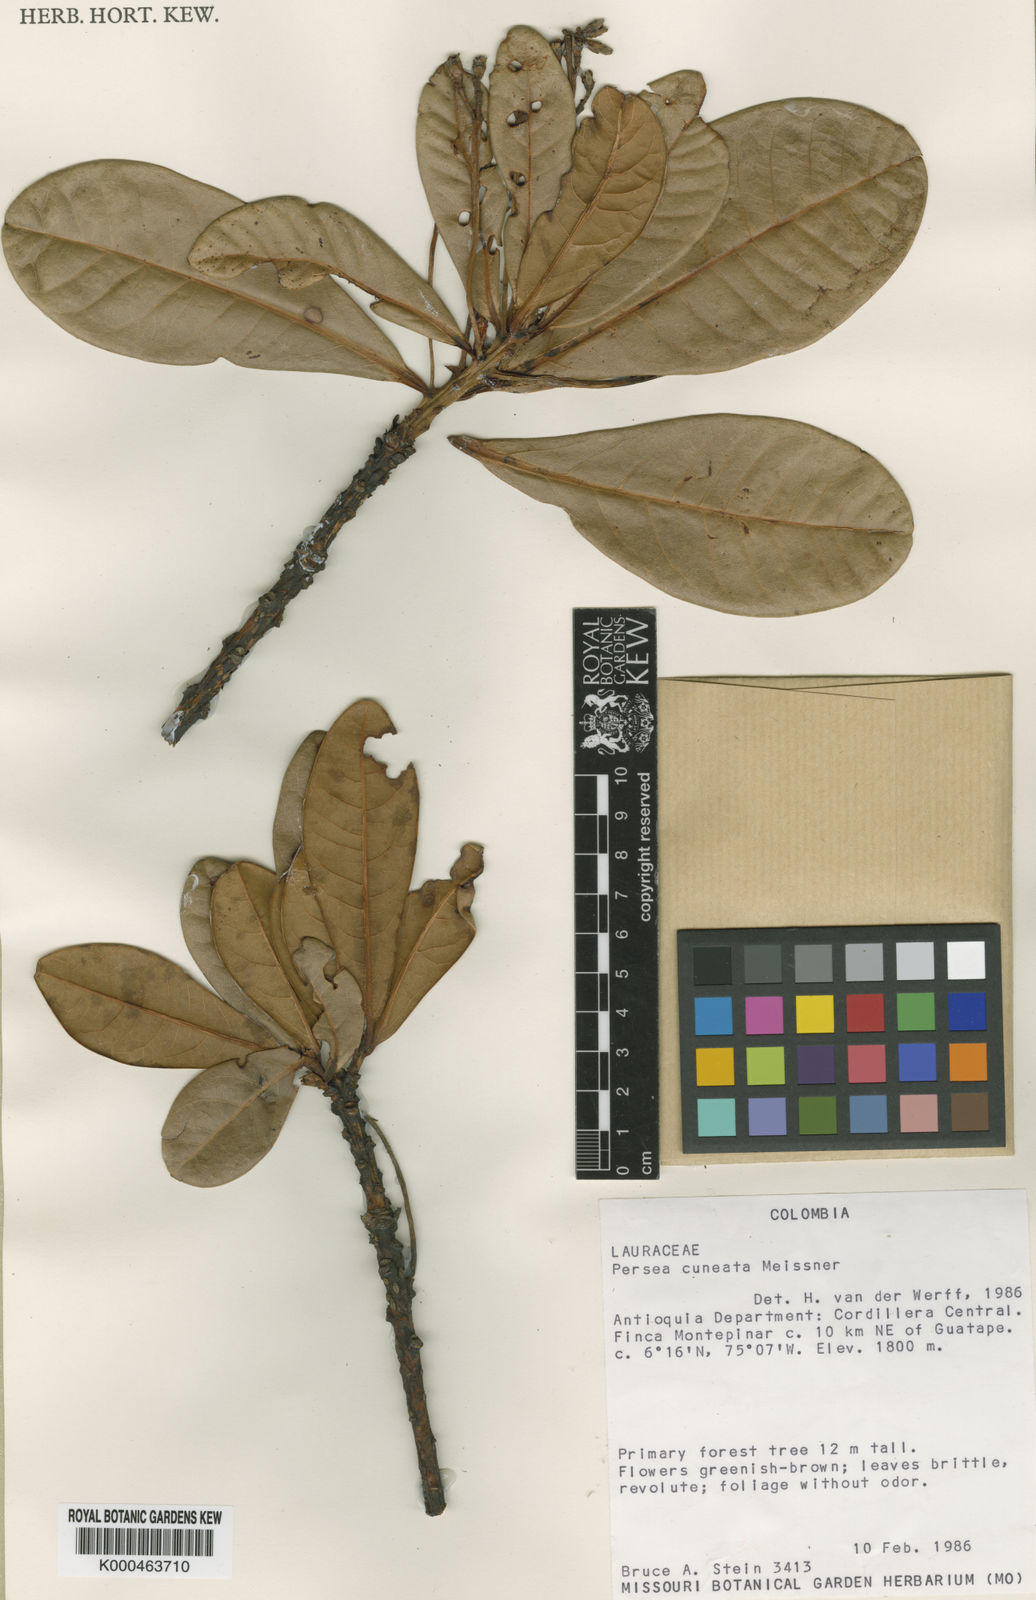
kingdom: Plantae
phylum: Tracheophyta
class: Magnoliopsida
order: Laurales
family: Lauraceae
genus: Persea
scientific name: Persea cuneata
